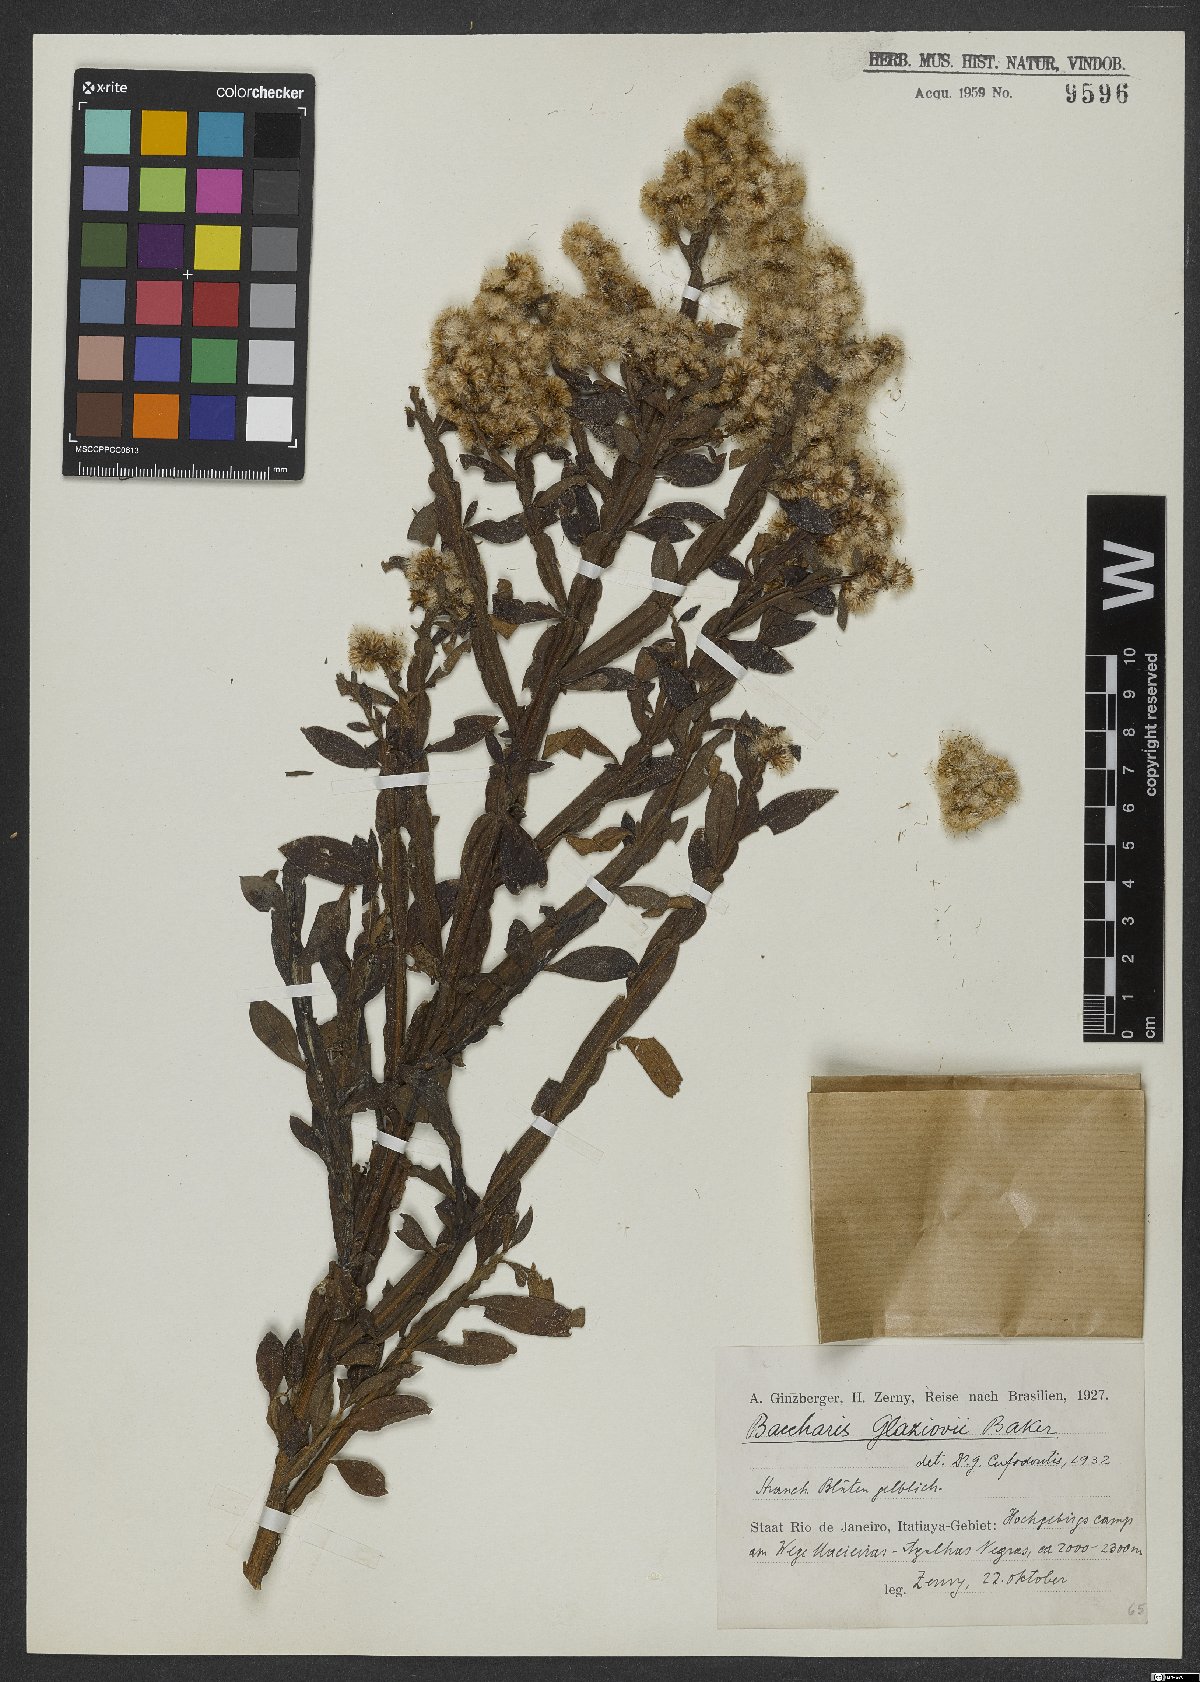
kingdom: Plantae
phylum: Tracheophyta
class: Magnoliopsida
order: Asterales
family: Asteraceae
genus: Baccharis
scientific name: Baccharis glaziovii
